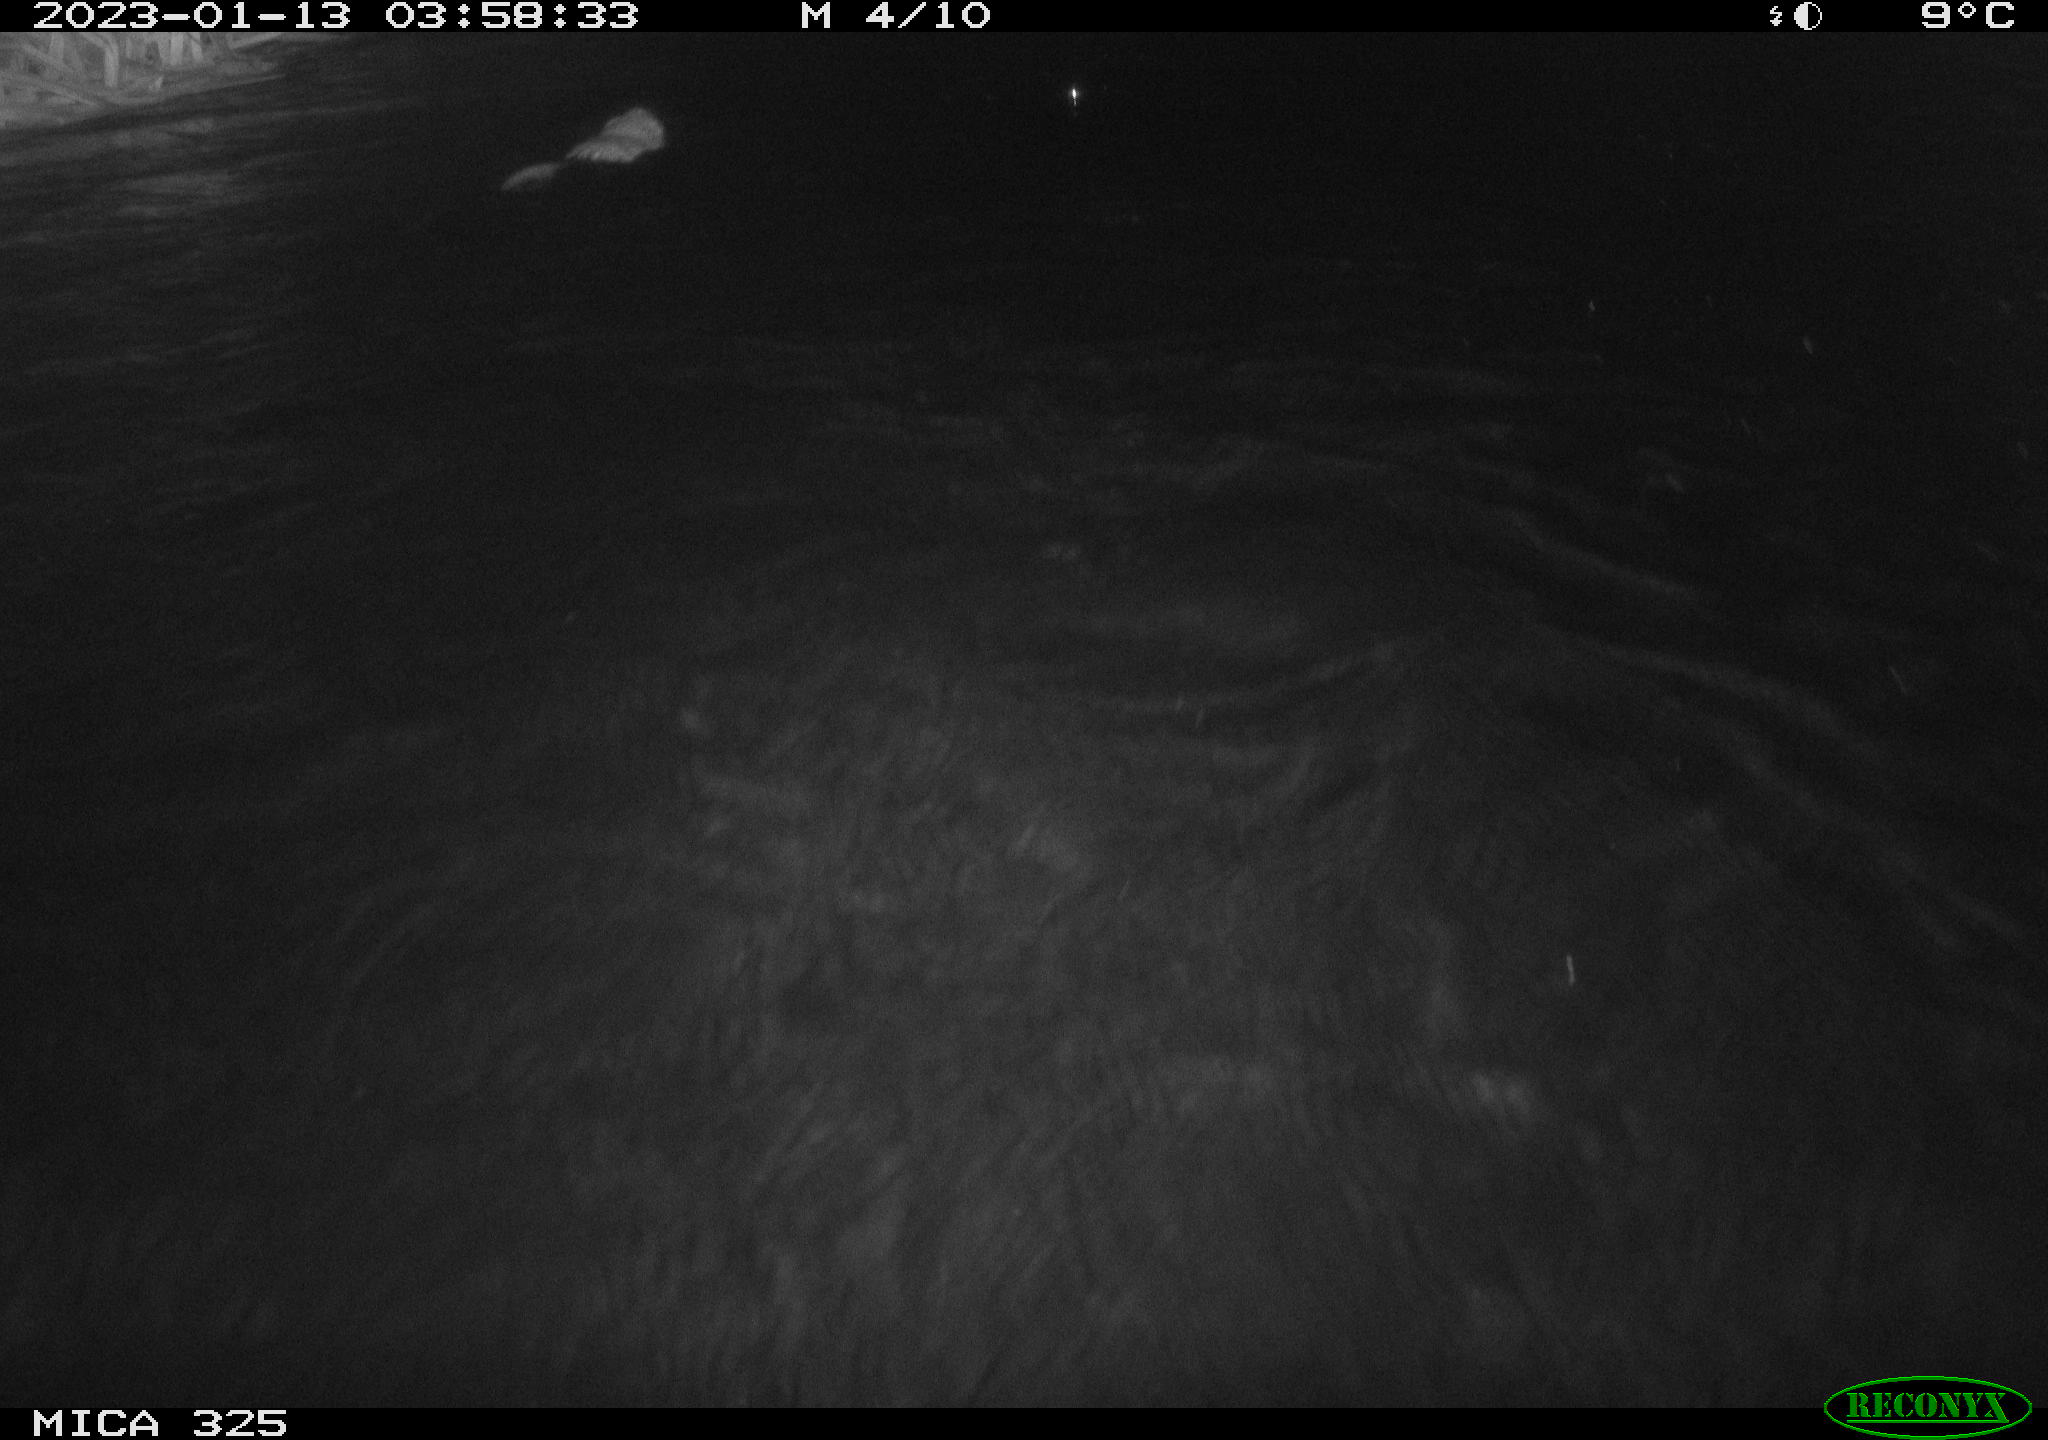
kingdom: Animalia
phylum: Chordata
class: Mammalia
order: Rodentia
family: Cricetidae
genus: Ondatra
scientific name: Ondatra zibethicus
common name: Muskrat
